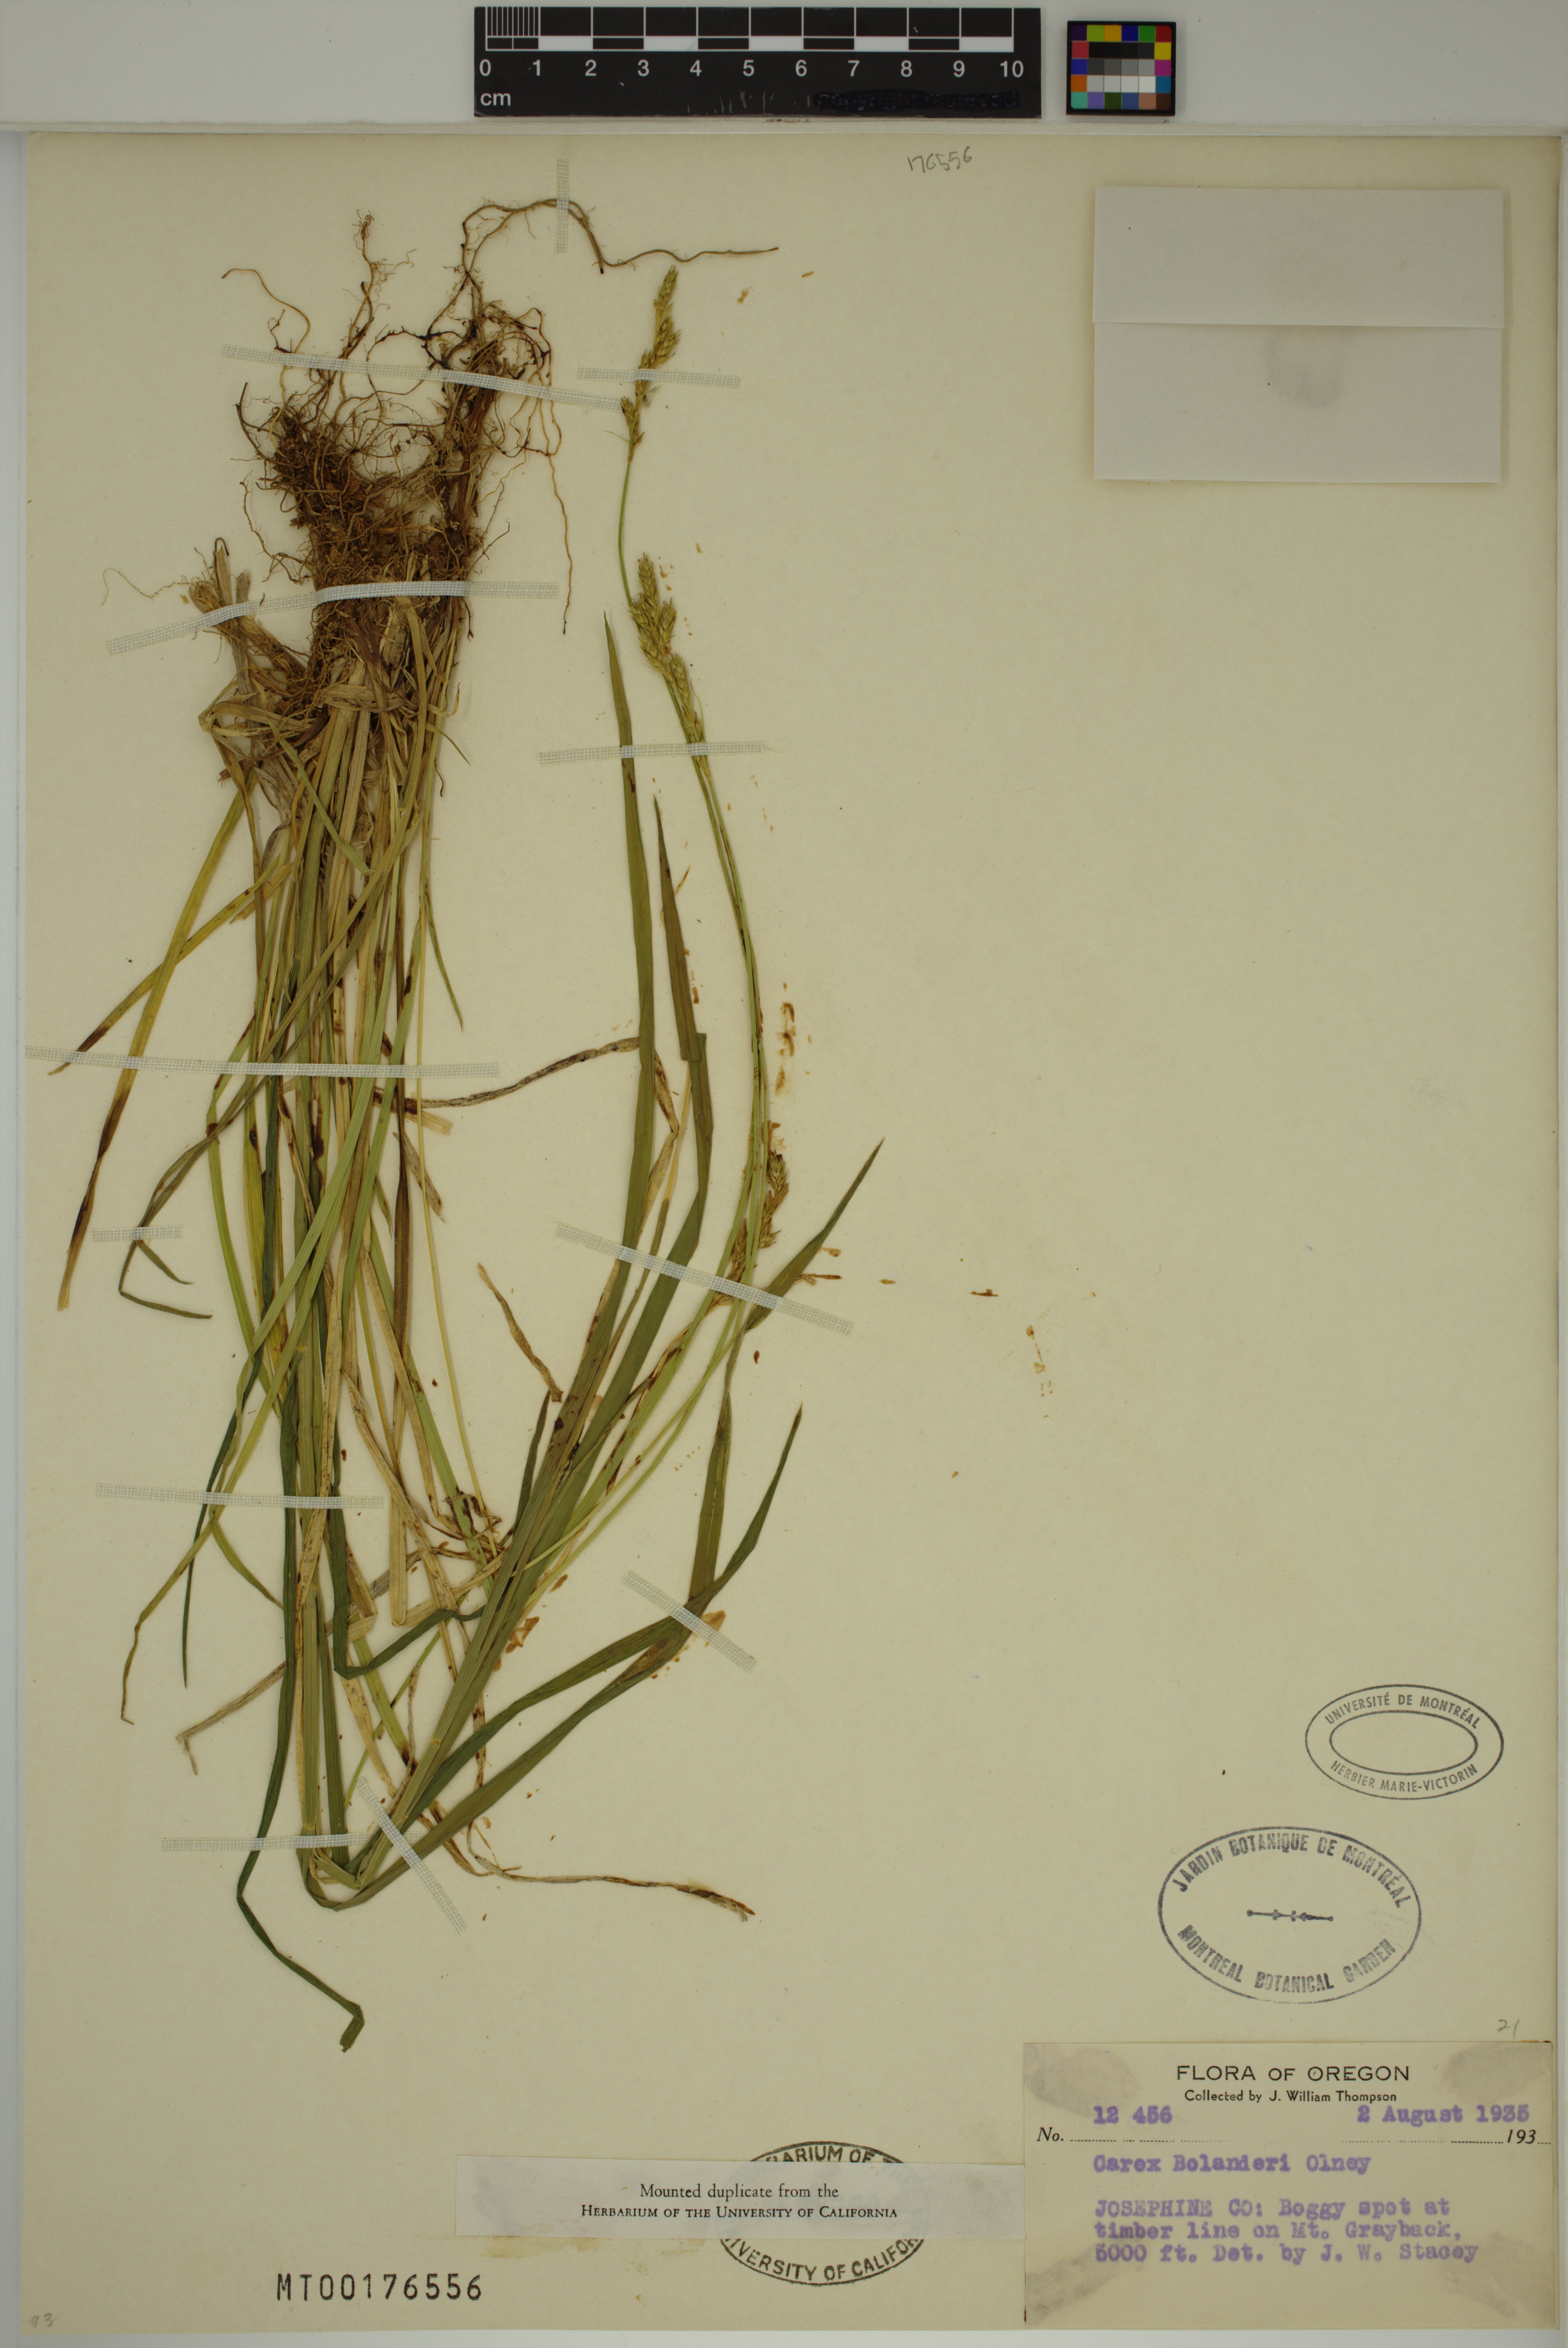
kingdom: Plantae
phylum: Tracheophyta
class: Liliopsida
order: Poales
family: Cyperaceae
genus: Carex
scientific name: Carex bolanderi
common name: Bolander's sedge
